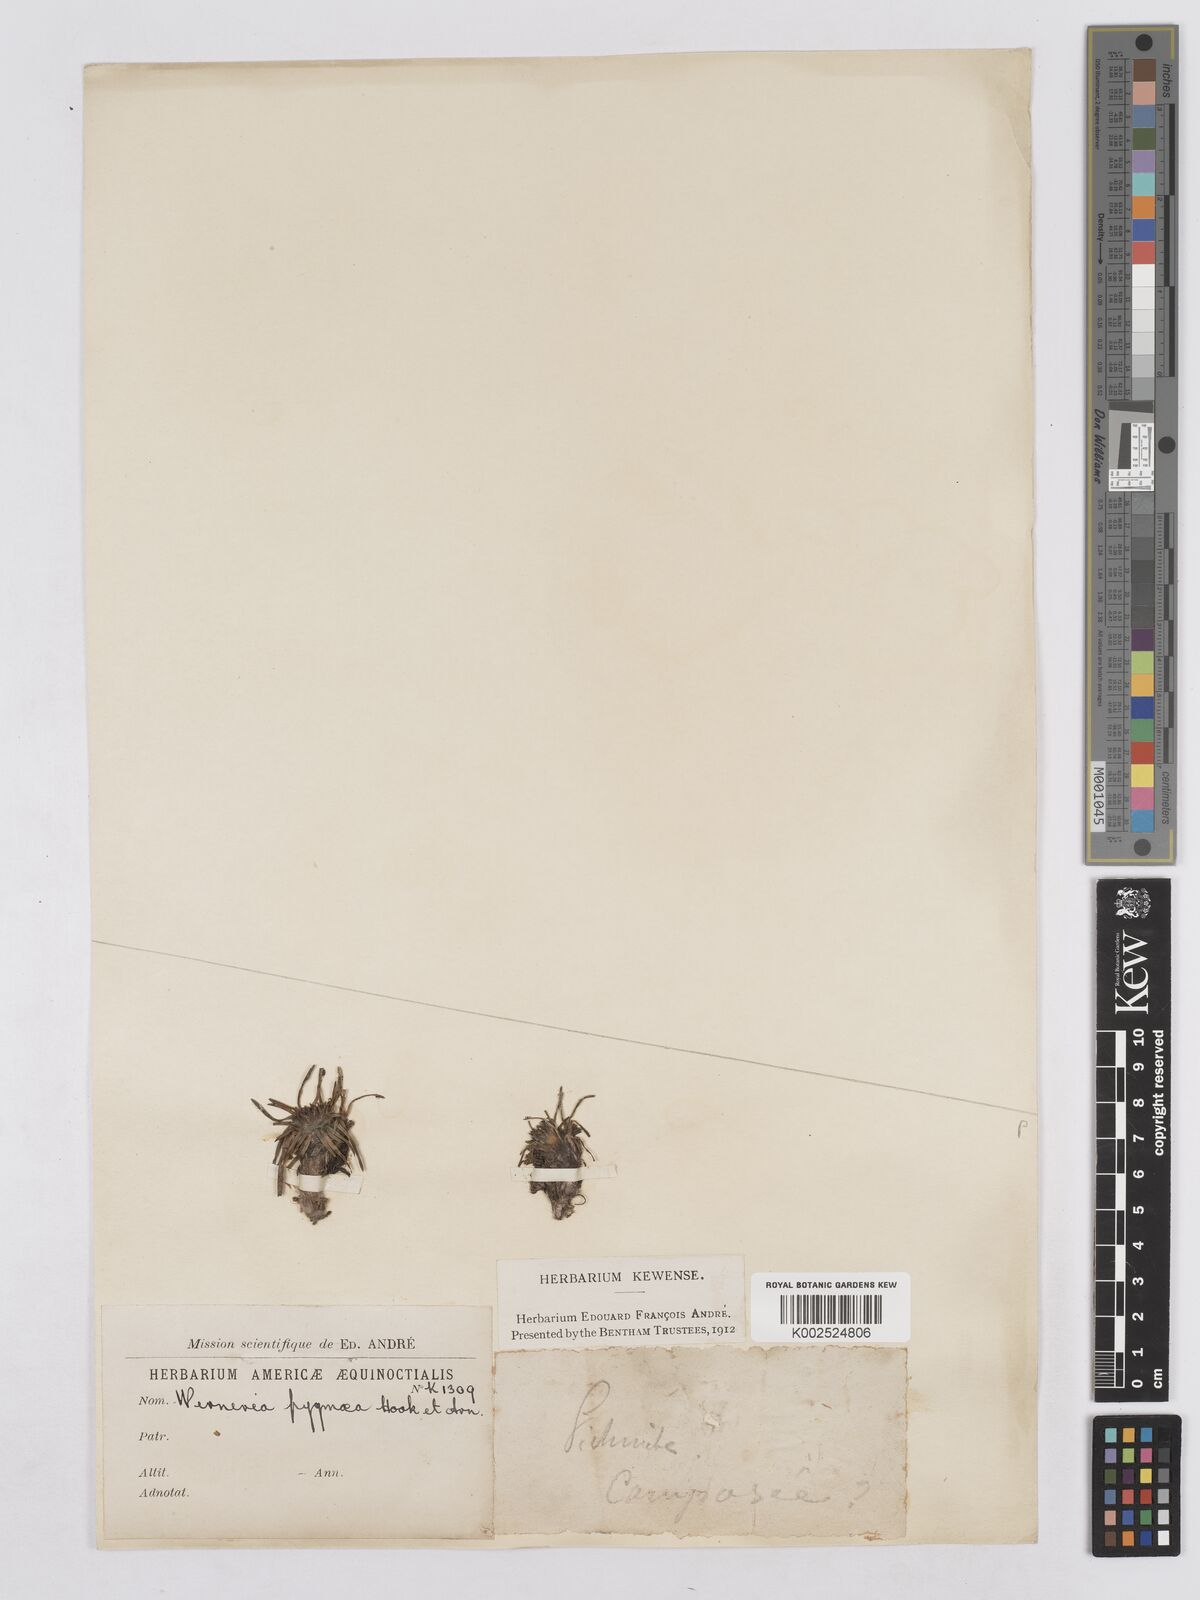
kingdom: Plantae
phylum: Tracheophyta
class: Magnoliopsida
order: Asterales
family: Asteraceae
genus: Rockhausenia
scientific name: Rockhausenia pygmaea
